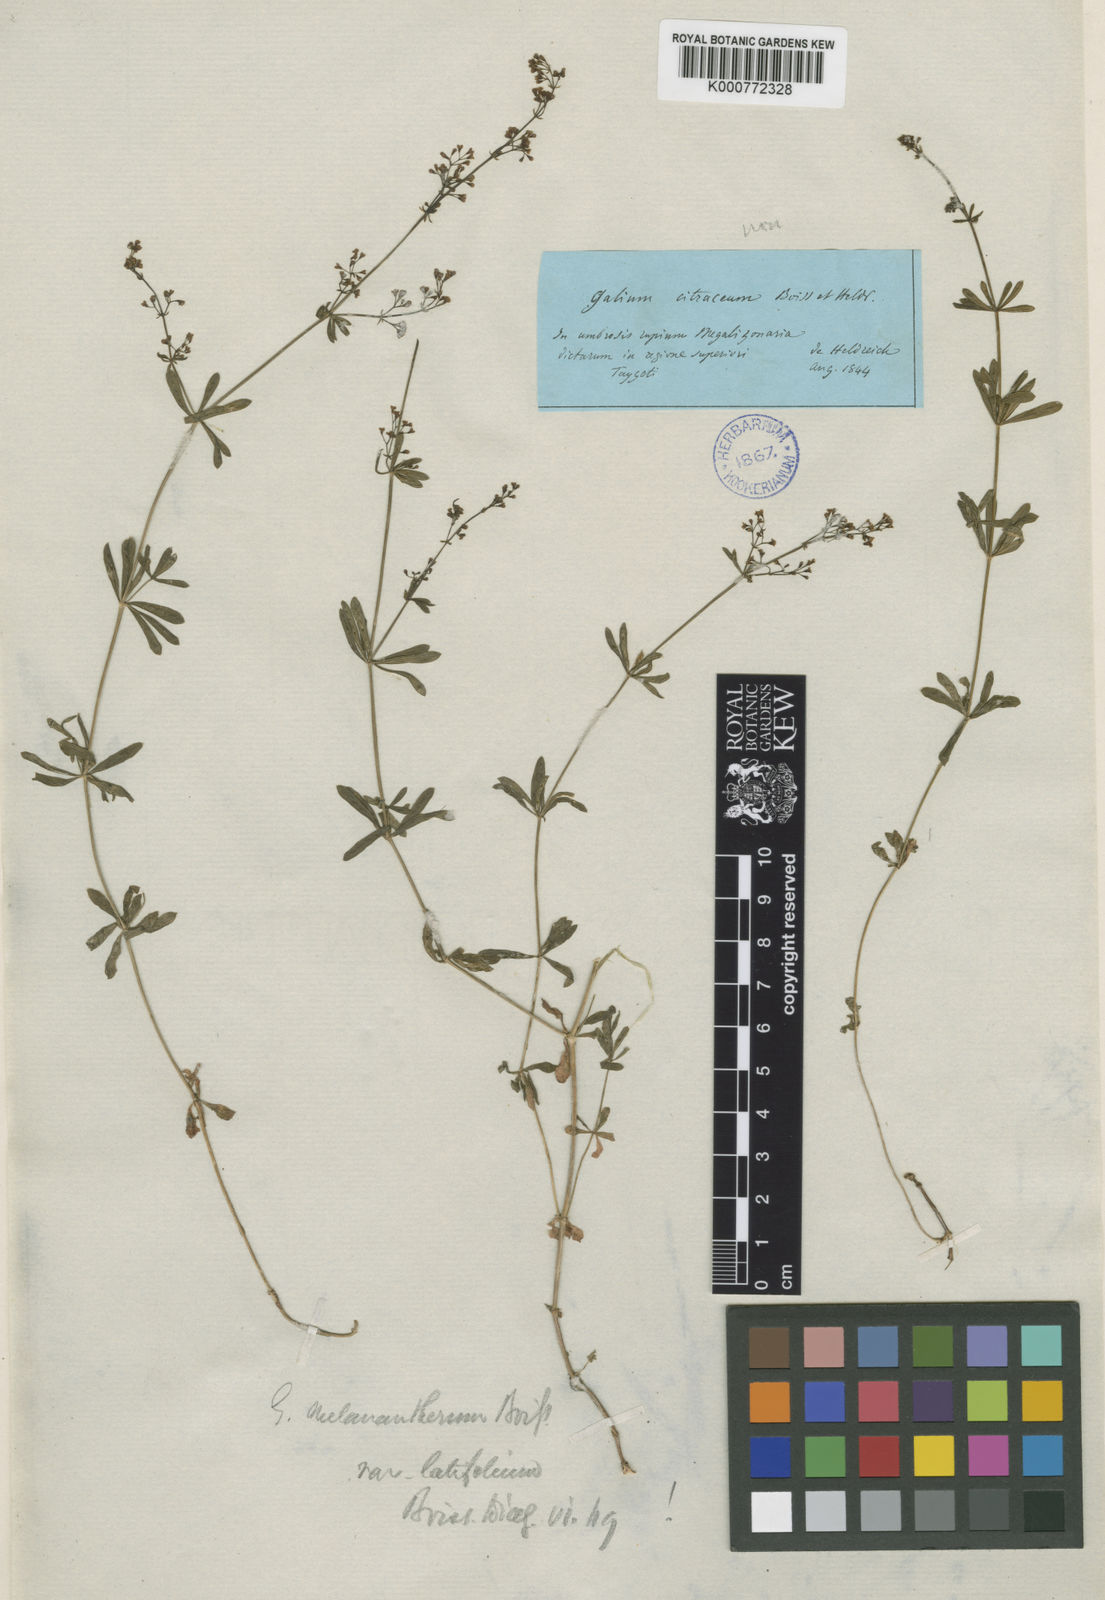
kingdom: Plantae
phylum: Tracheophyta
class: Magnoliopsida
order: Gentianales
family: Rubiaceae
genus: Galium
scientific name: Galium melanantherum
